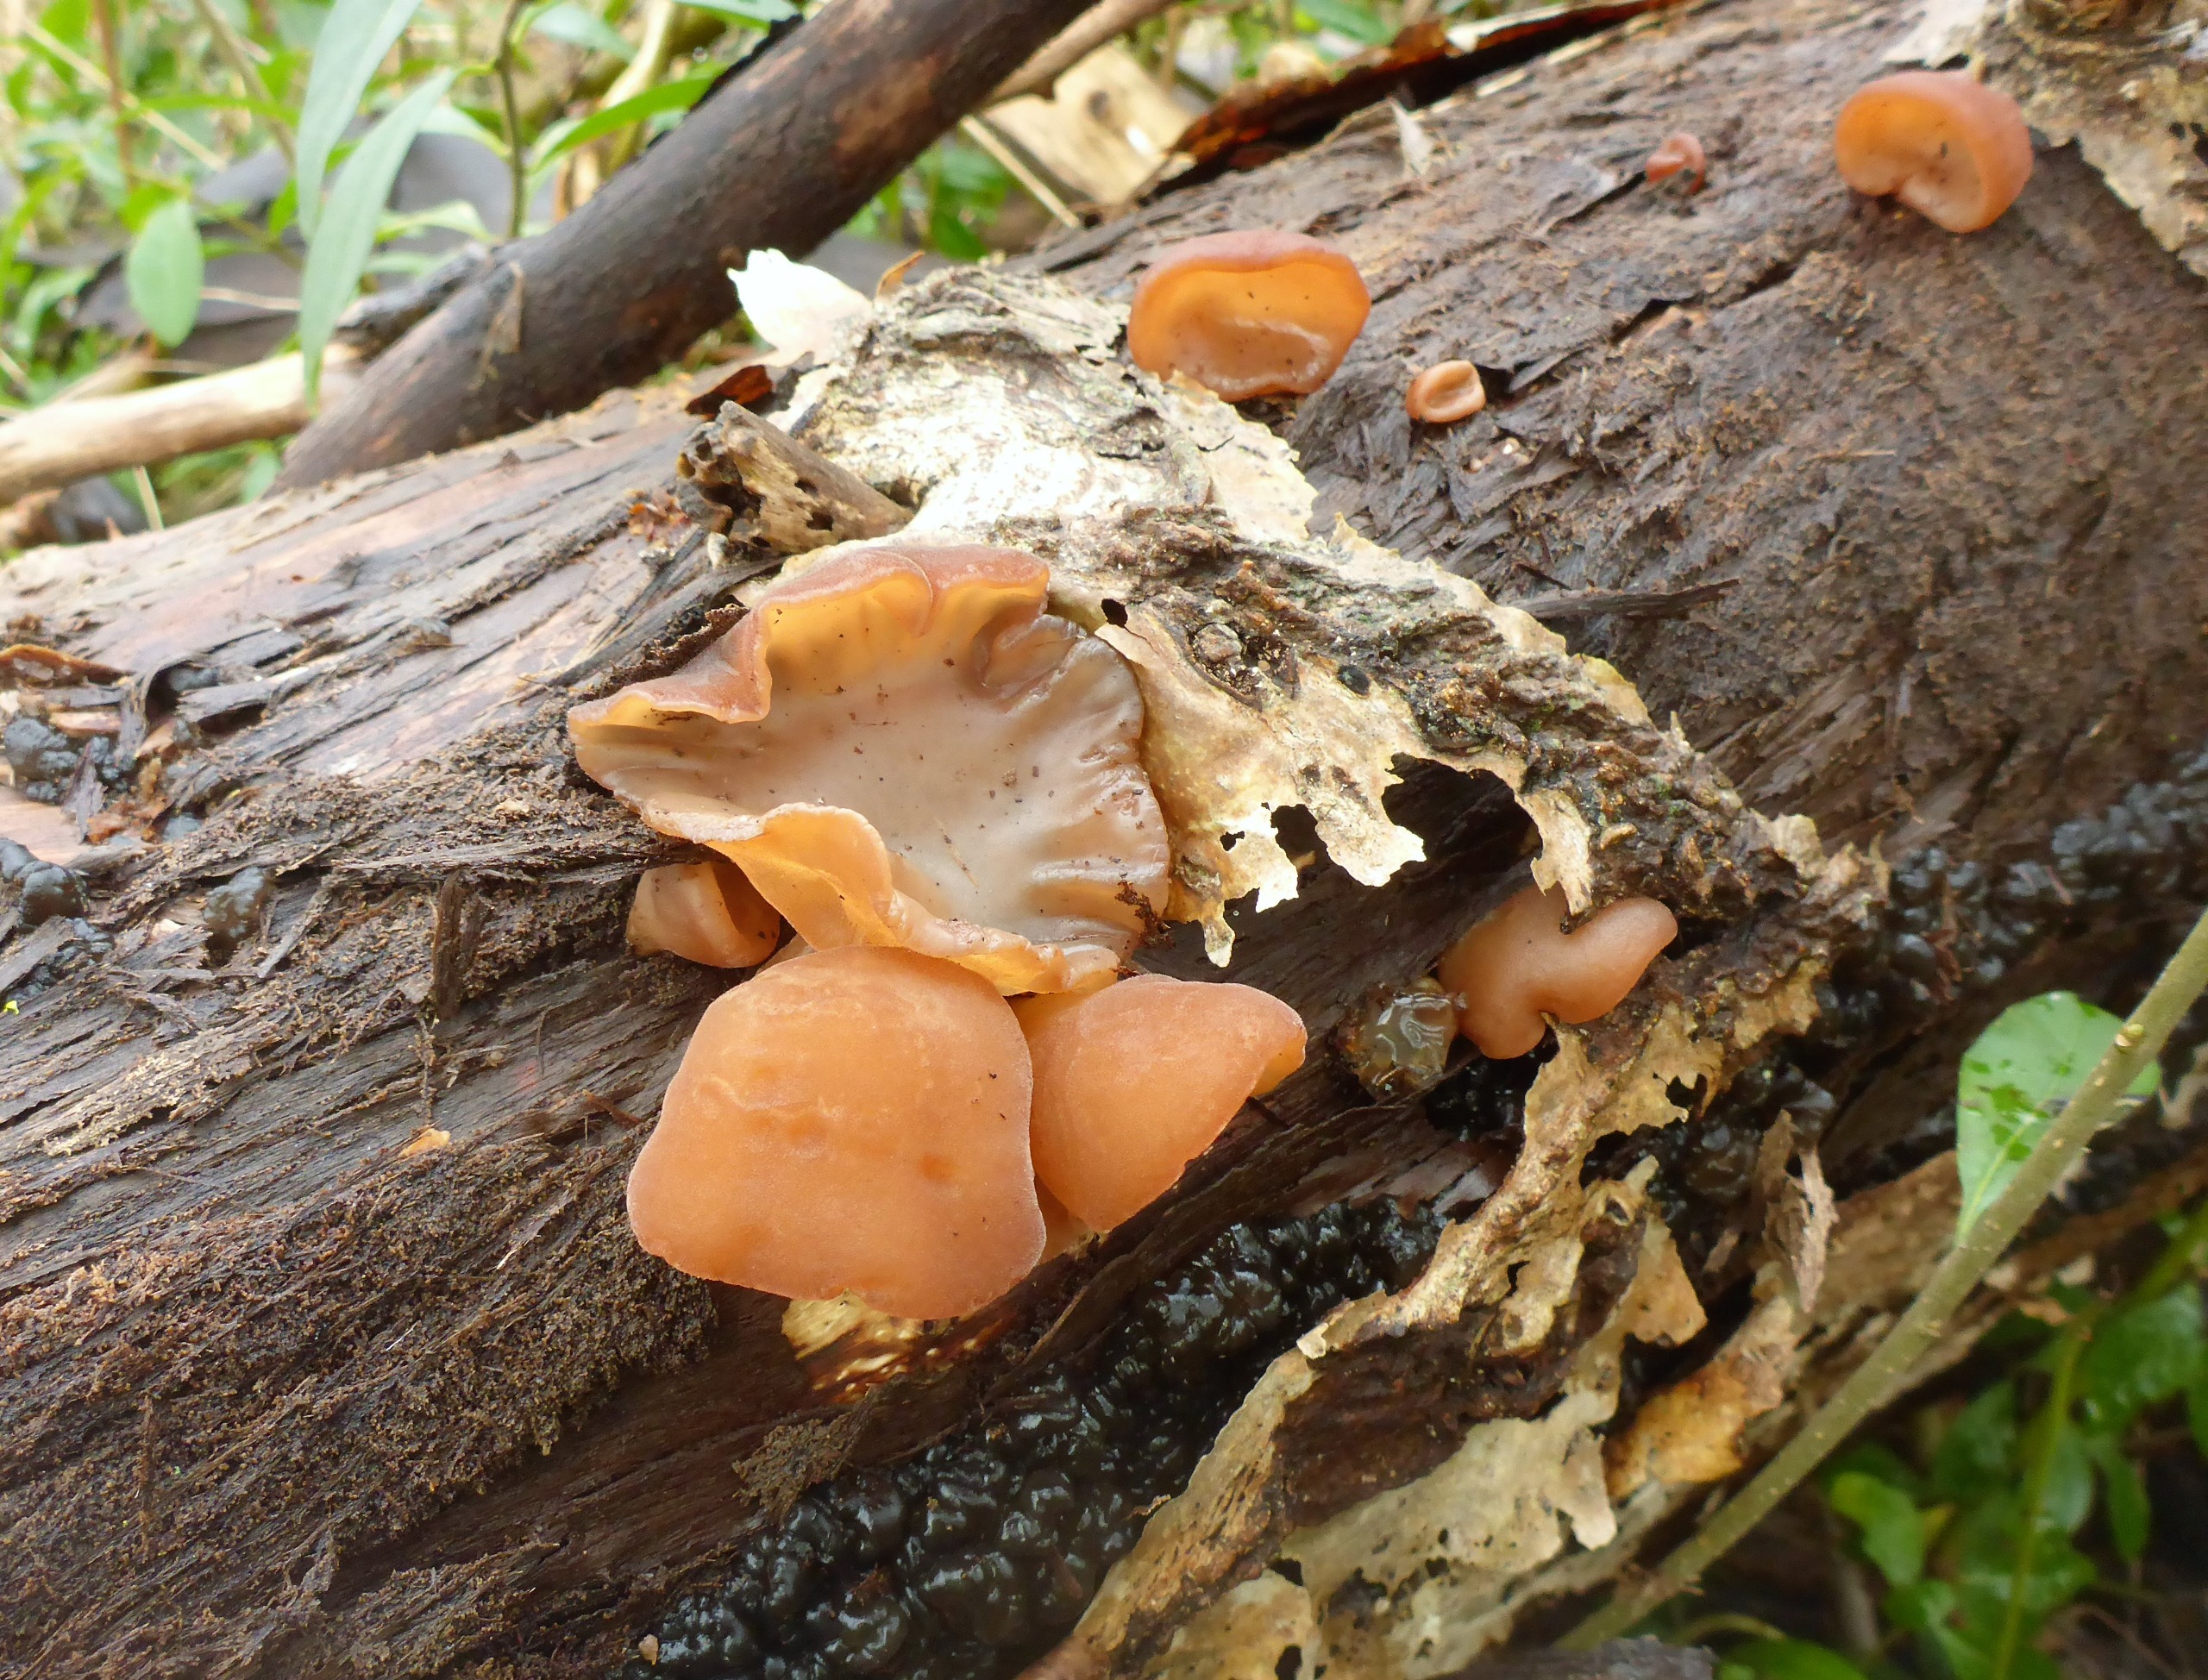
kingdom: Fungi
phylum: Basidiomycota
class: Agaricomycetes
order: Auriculariales
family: Auriculariaceae
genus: Auricularia
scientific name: Auricularia auricula-judae
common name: Almindelig judasøre
